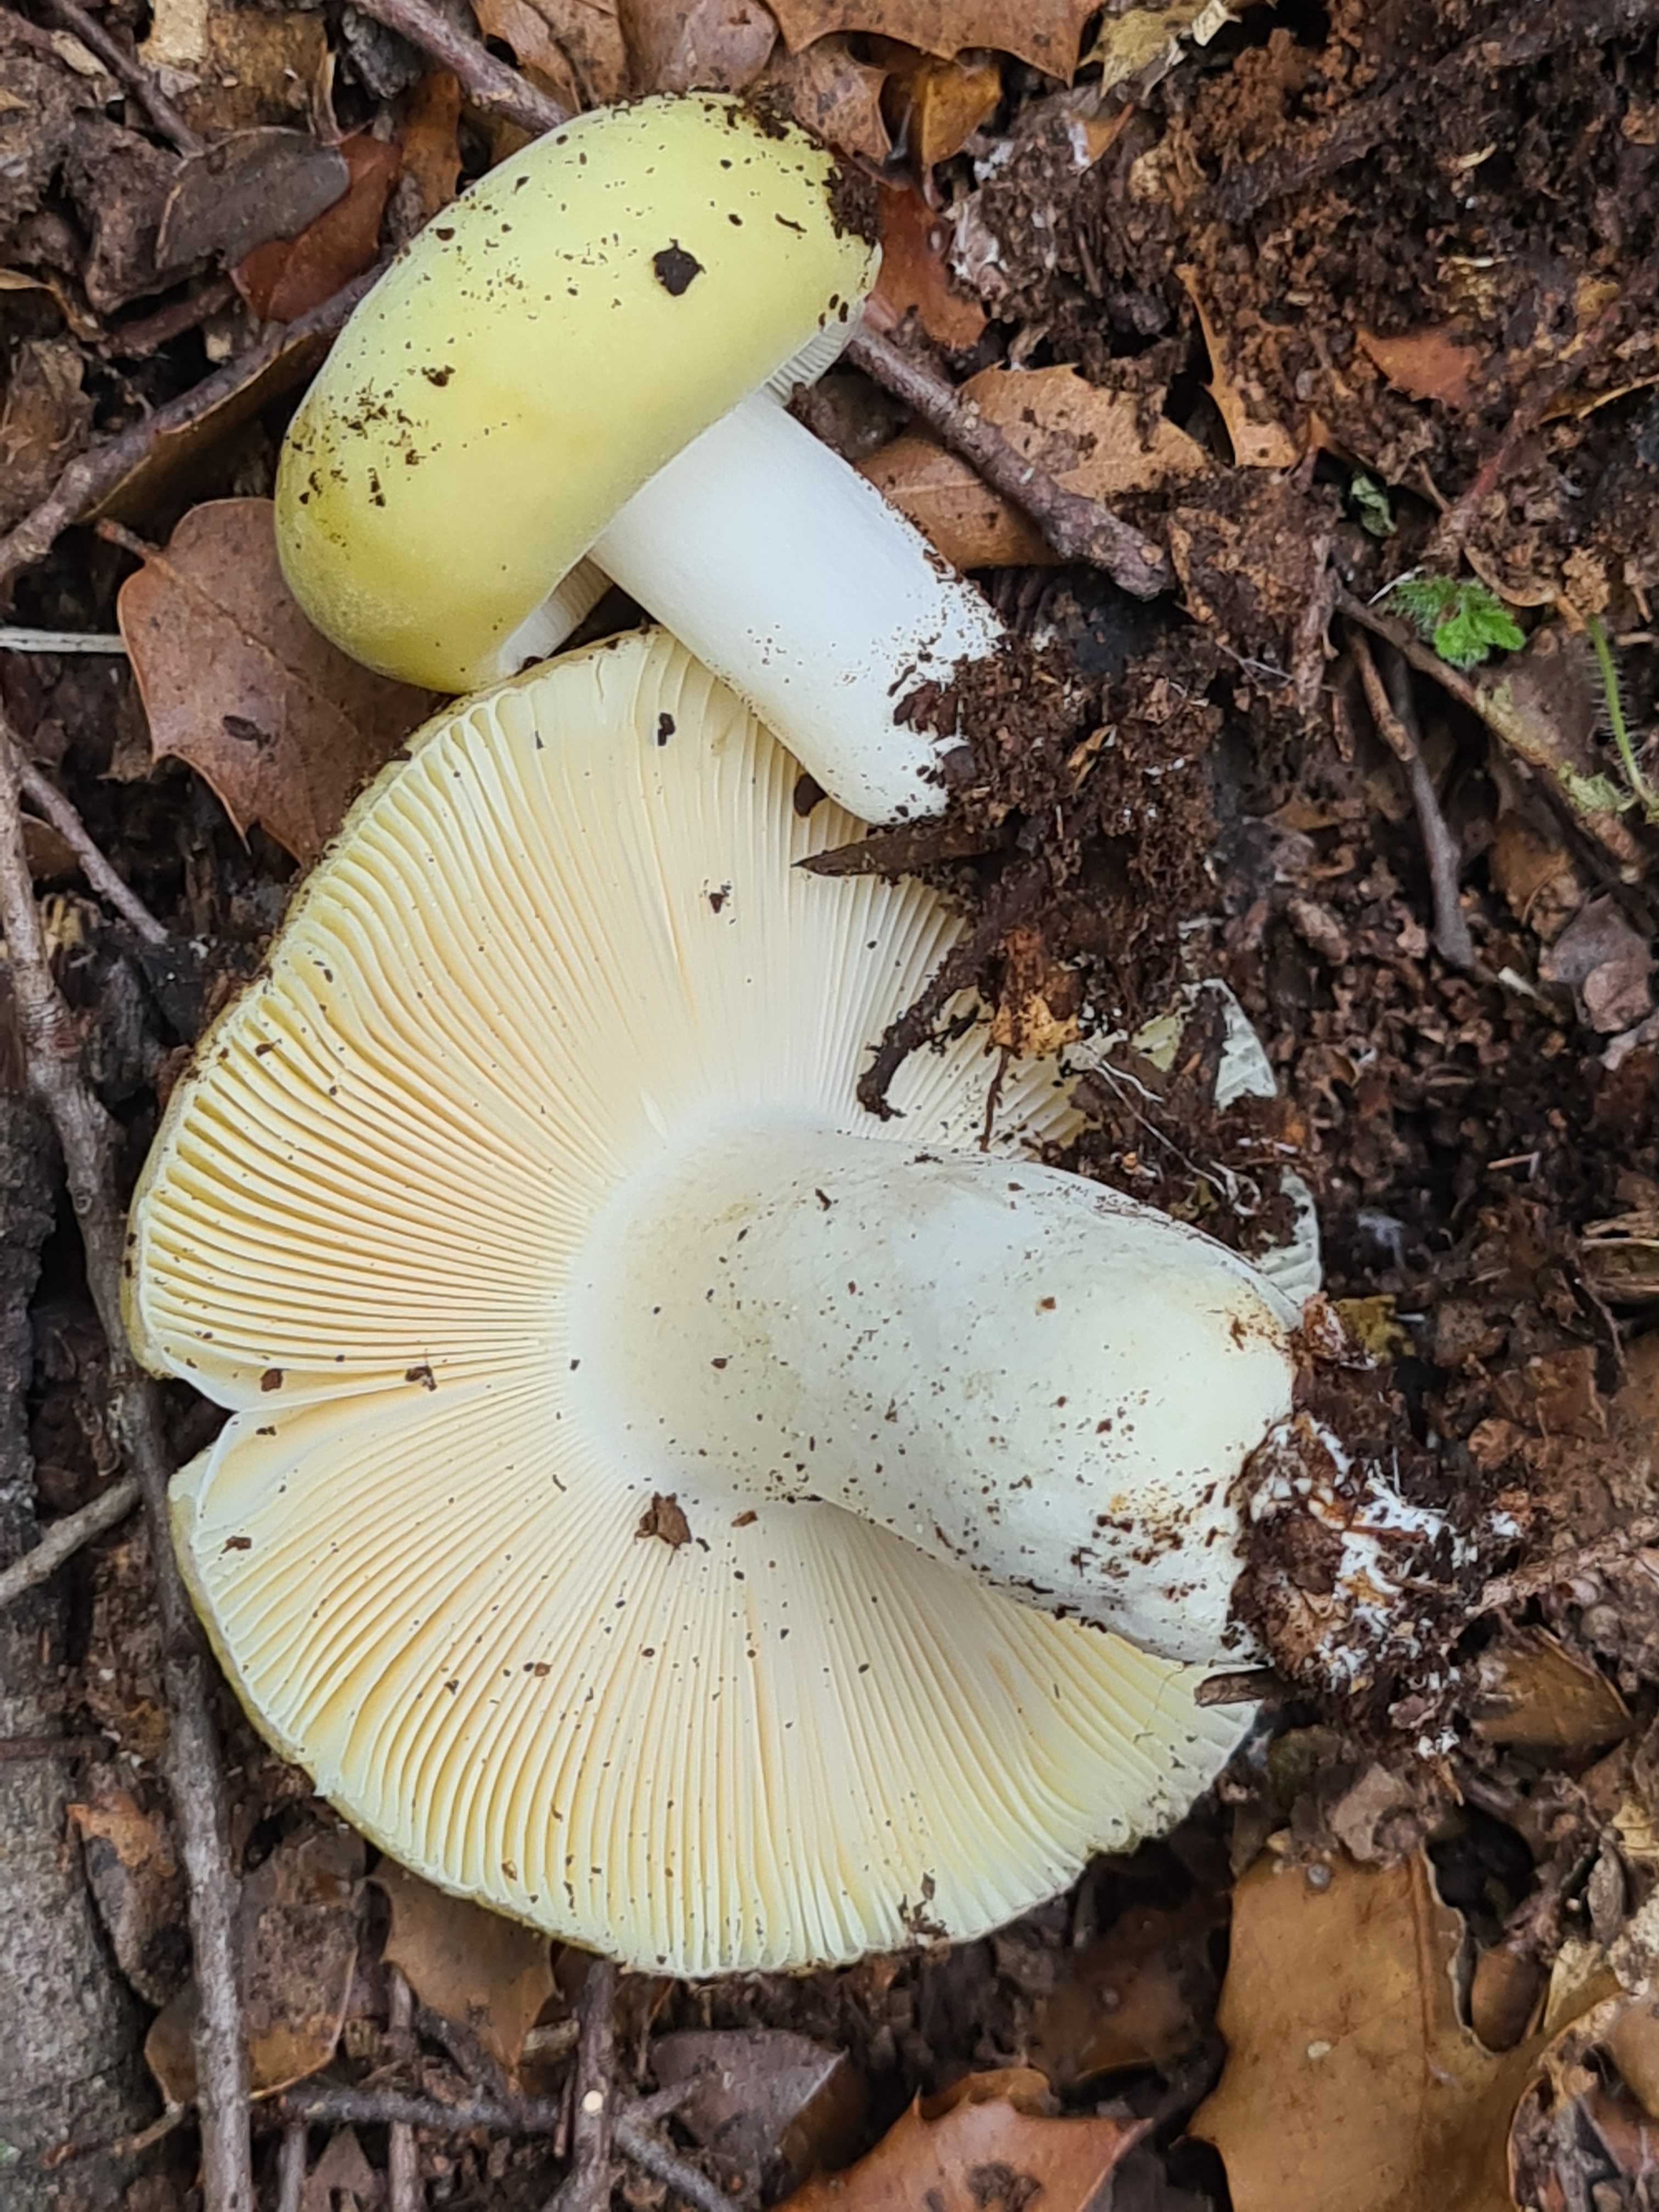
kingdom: Fungi
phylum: Basidiomycota
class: Agaricomycetes
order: Russulales
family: Russulaceae
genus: Russula
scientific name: Russula violeipes
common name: ferskengul skørhat
